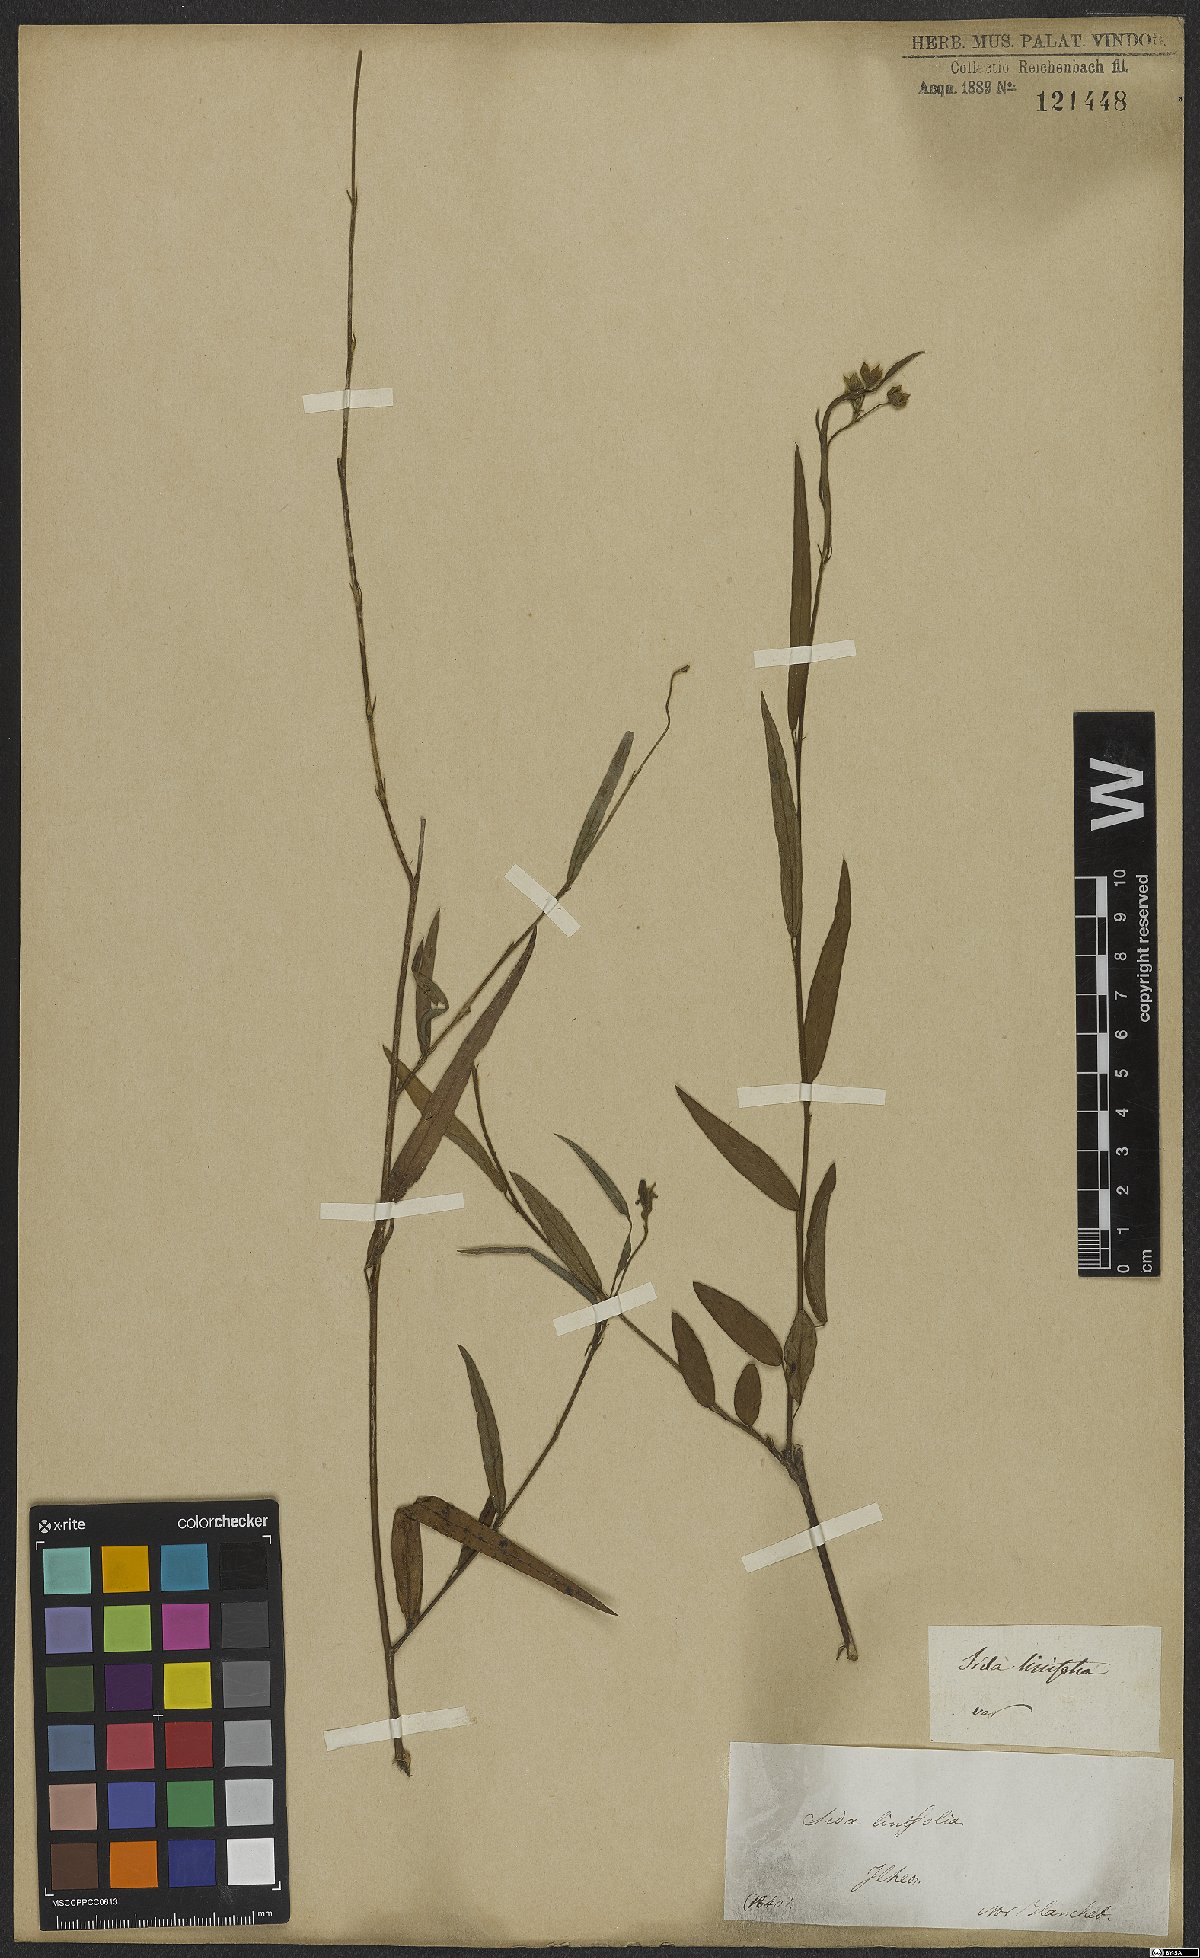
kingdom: Plantae
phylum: Tracheophyta
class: Magnoliopsida
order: Malvales
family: Malvaceae
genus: Sida
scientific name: Sida linifolia
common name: Flaxleaf fanpetals
